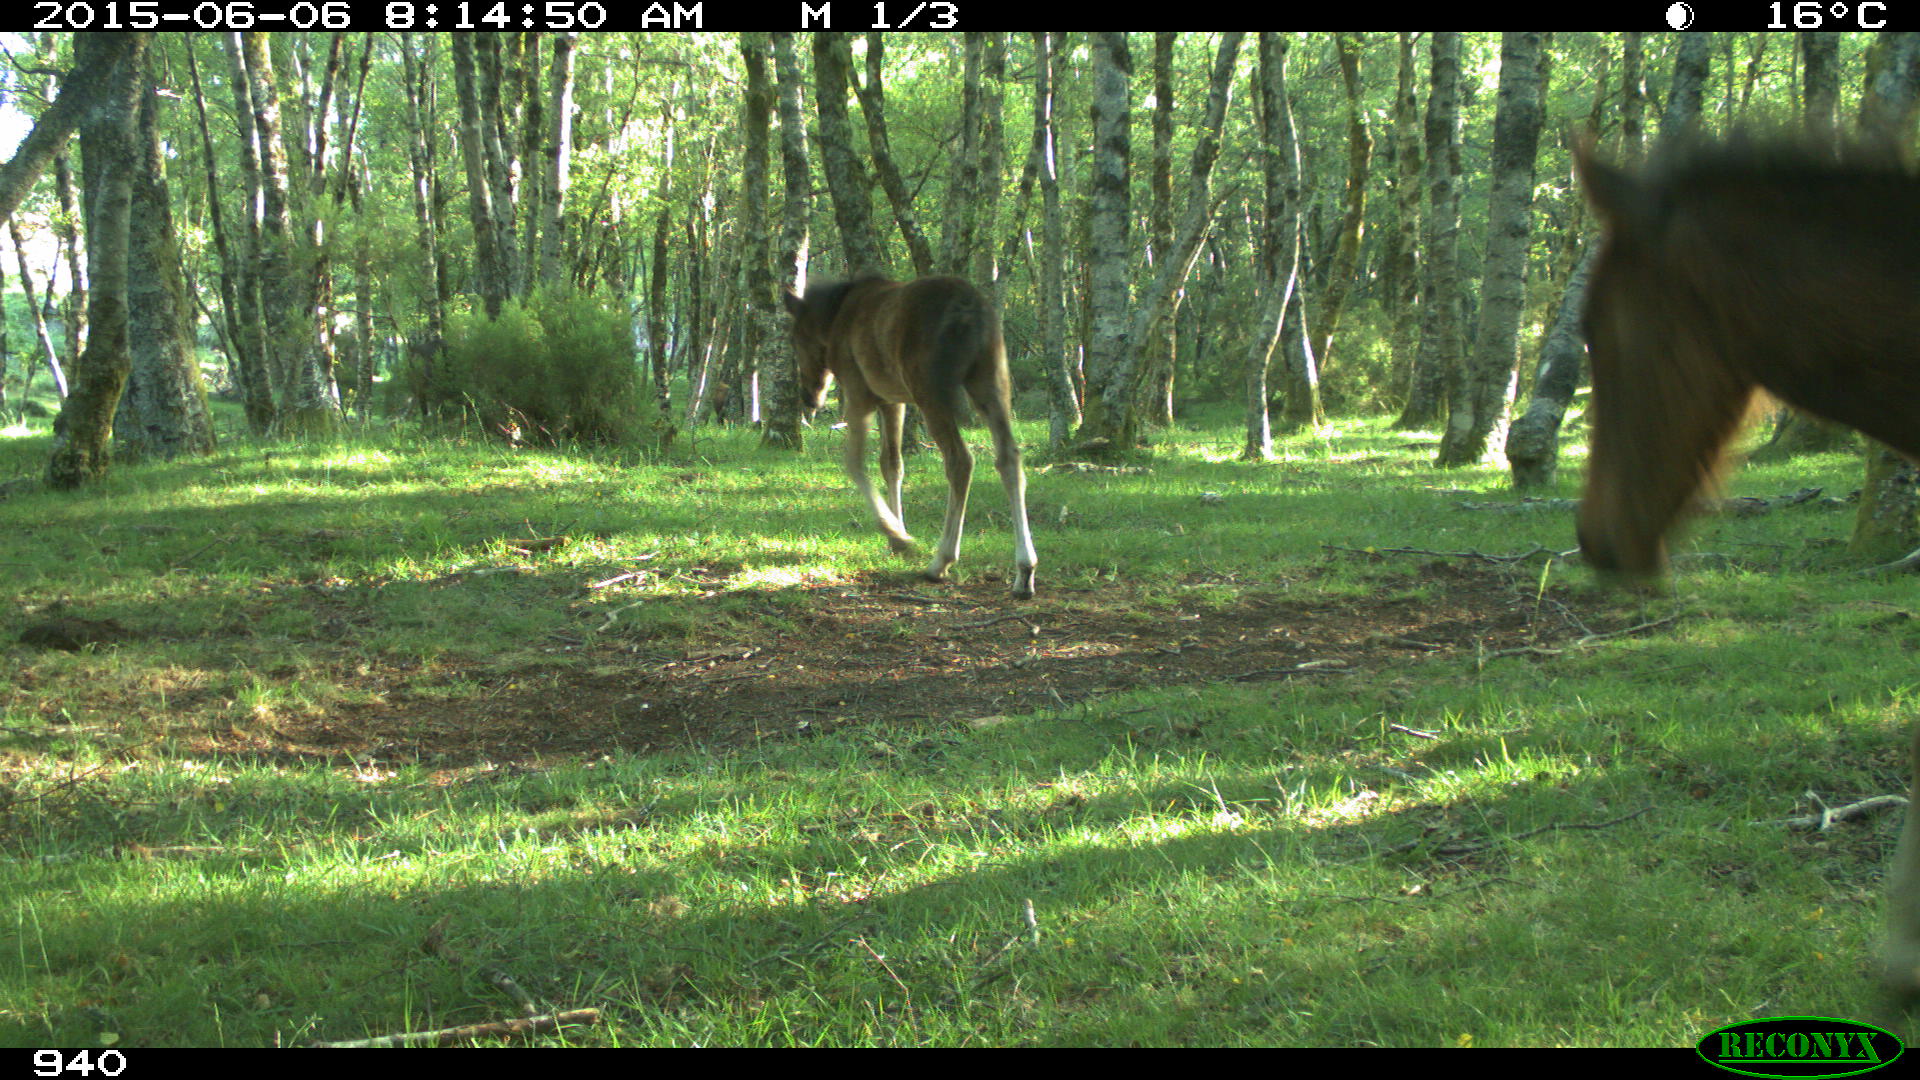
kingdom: Animalia
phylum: Chordata
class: Mammalia
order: Perissodactyla
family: Equidae
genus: Equus
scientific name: Equus caballus
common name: Horse
